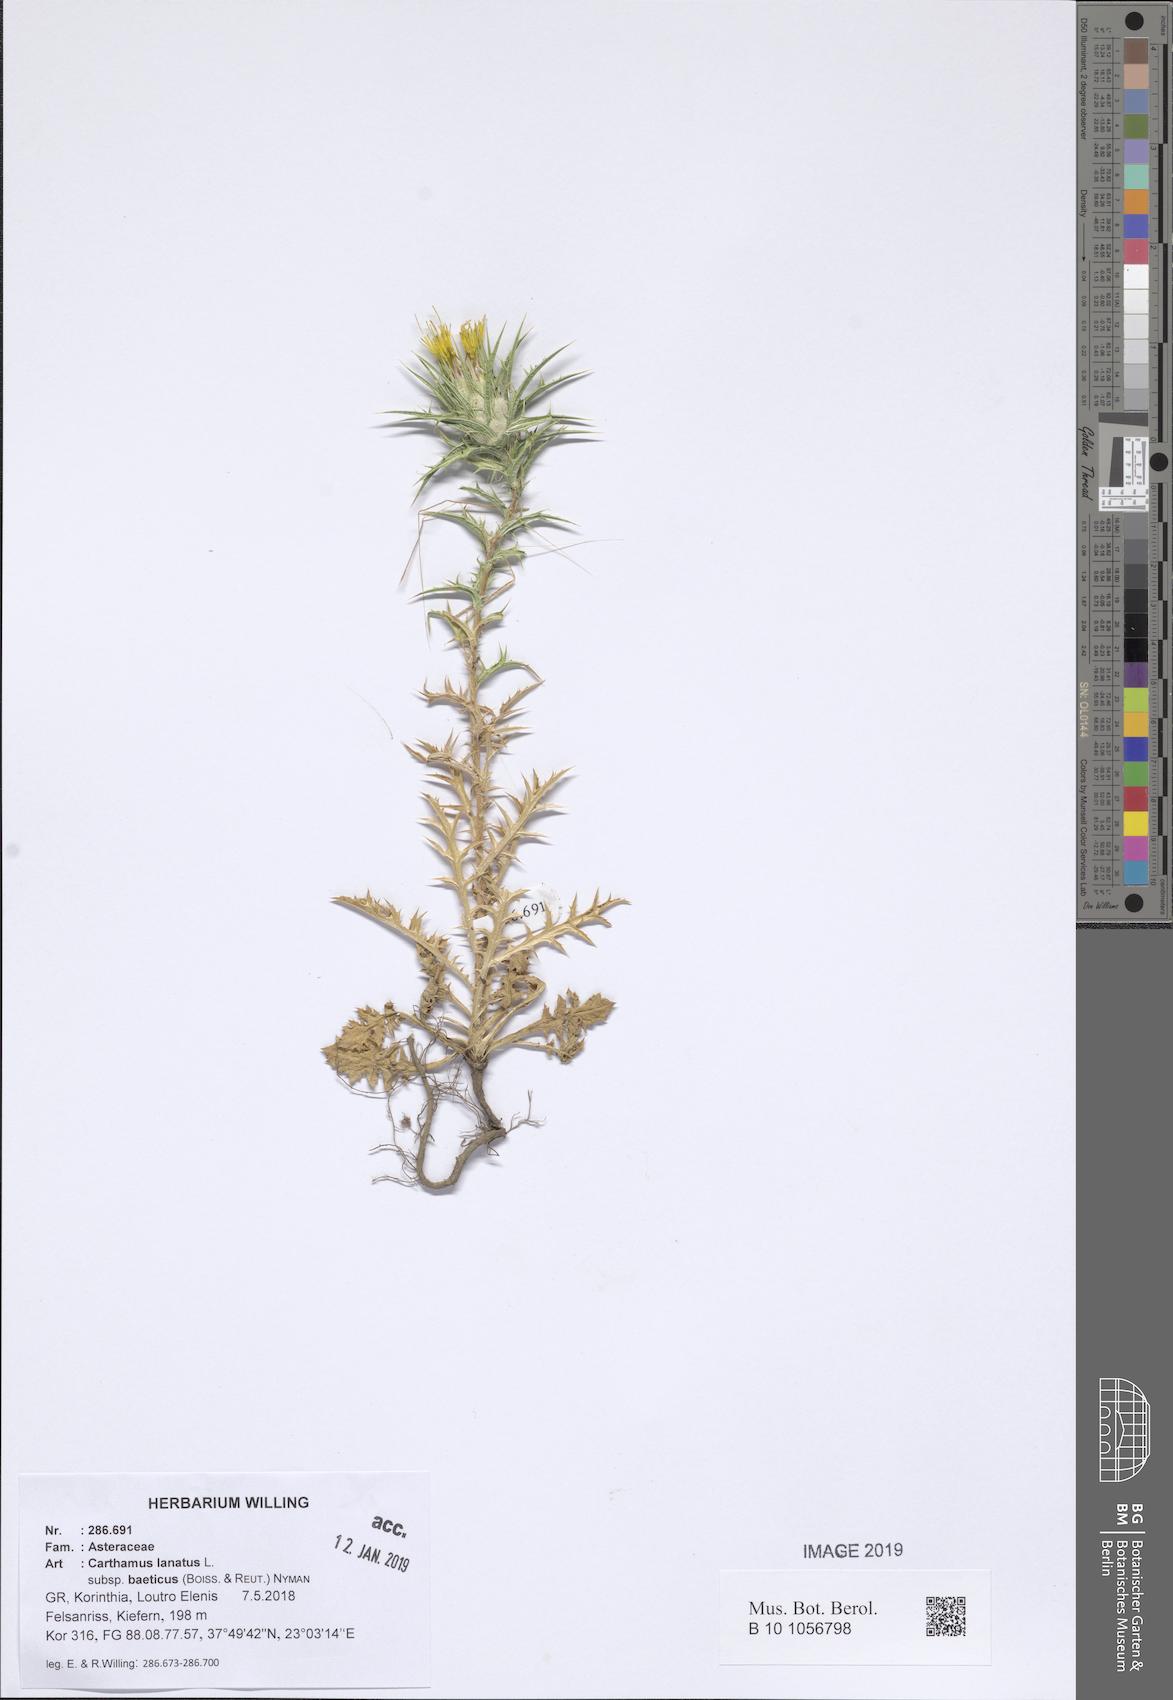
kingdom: Plantae
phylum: Tracheophyta
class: Magnoliopsida
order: Asterales
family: Asteraceae
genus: Carthamus
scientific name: Carthamus creticus
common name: Smooth distaff thistle
